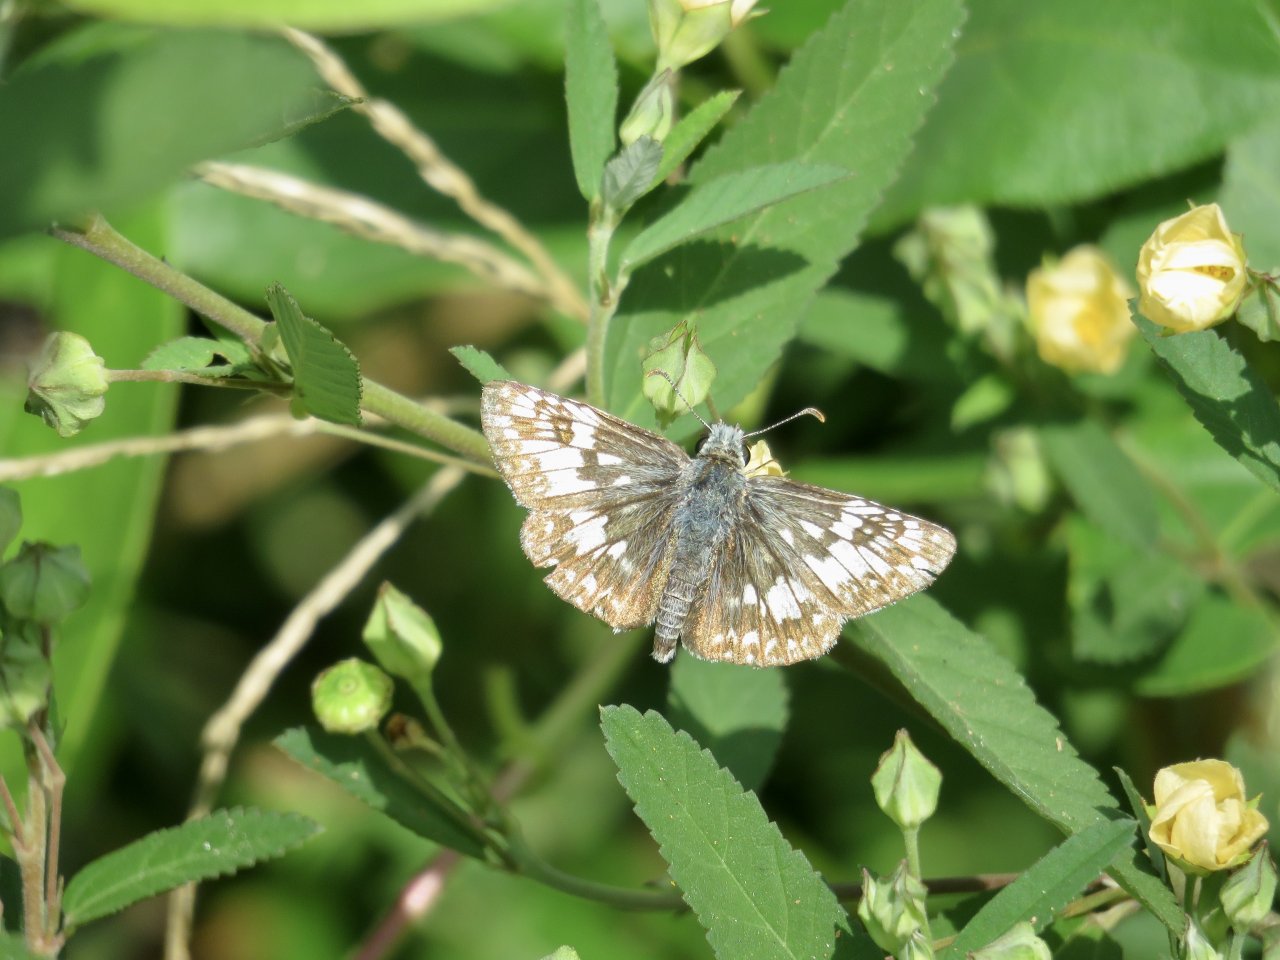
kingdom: Animalia
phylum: Arthropoda
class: Insecta
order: Lepidoptera
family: Hesperiidae
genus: Pyrgus
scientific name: Pyrgus communis
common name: Common Checkered-Skipper
